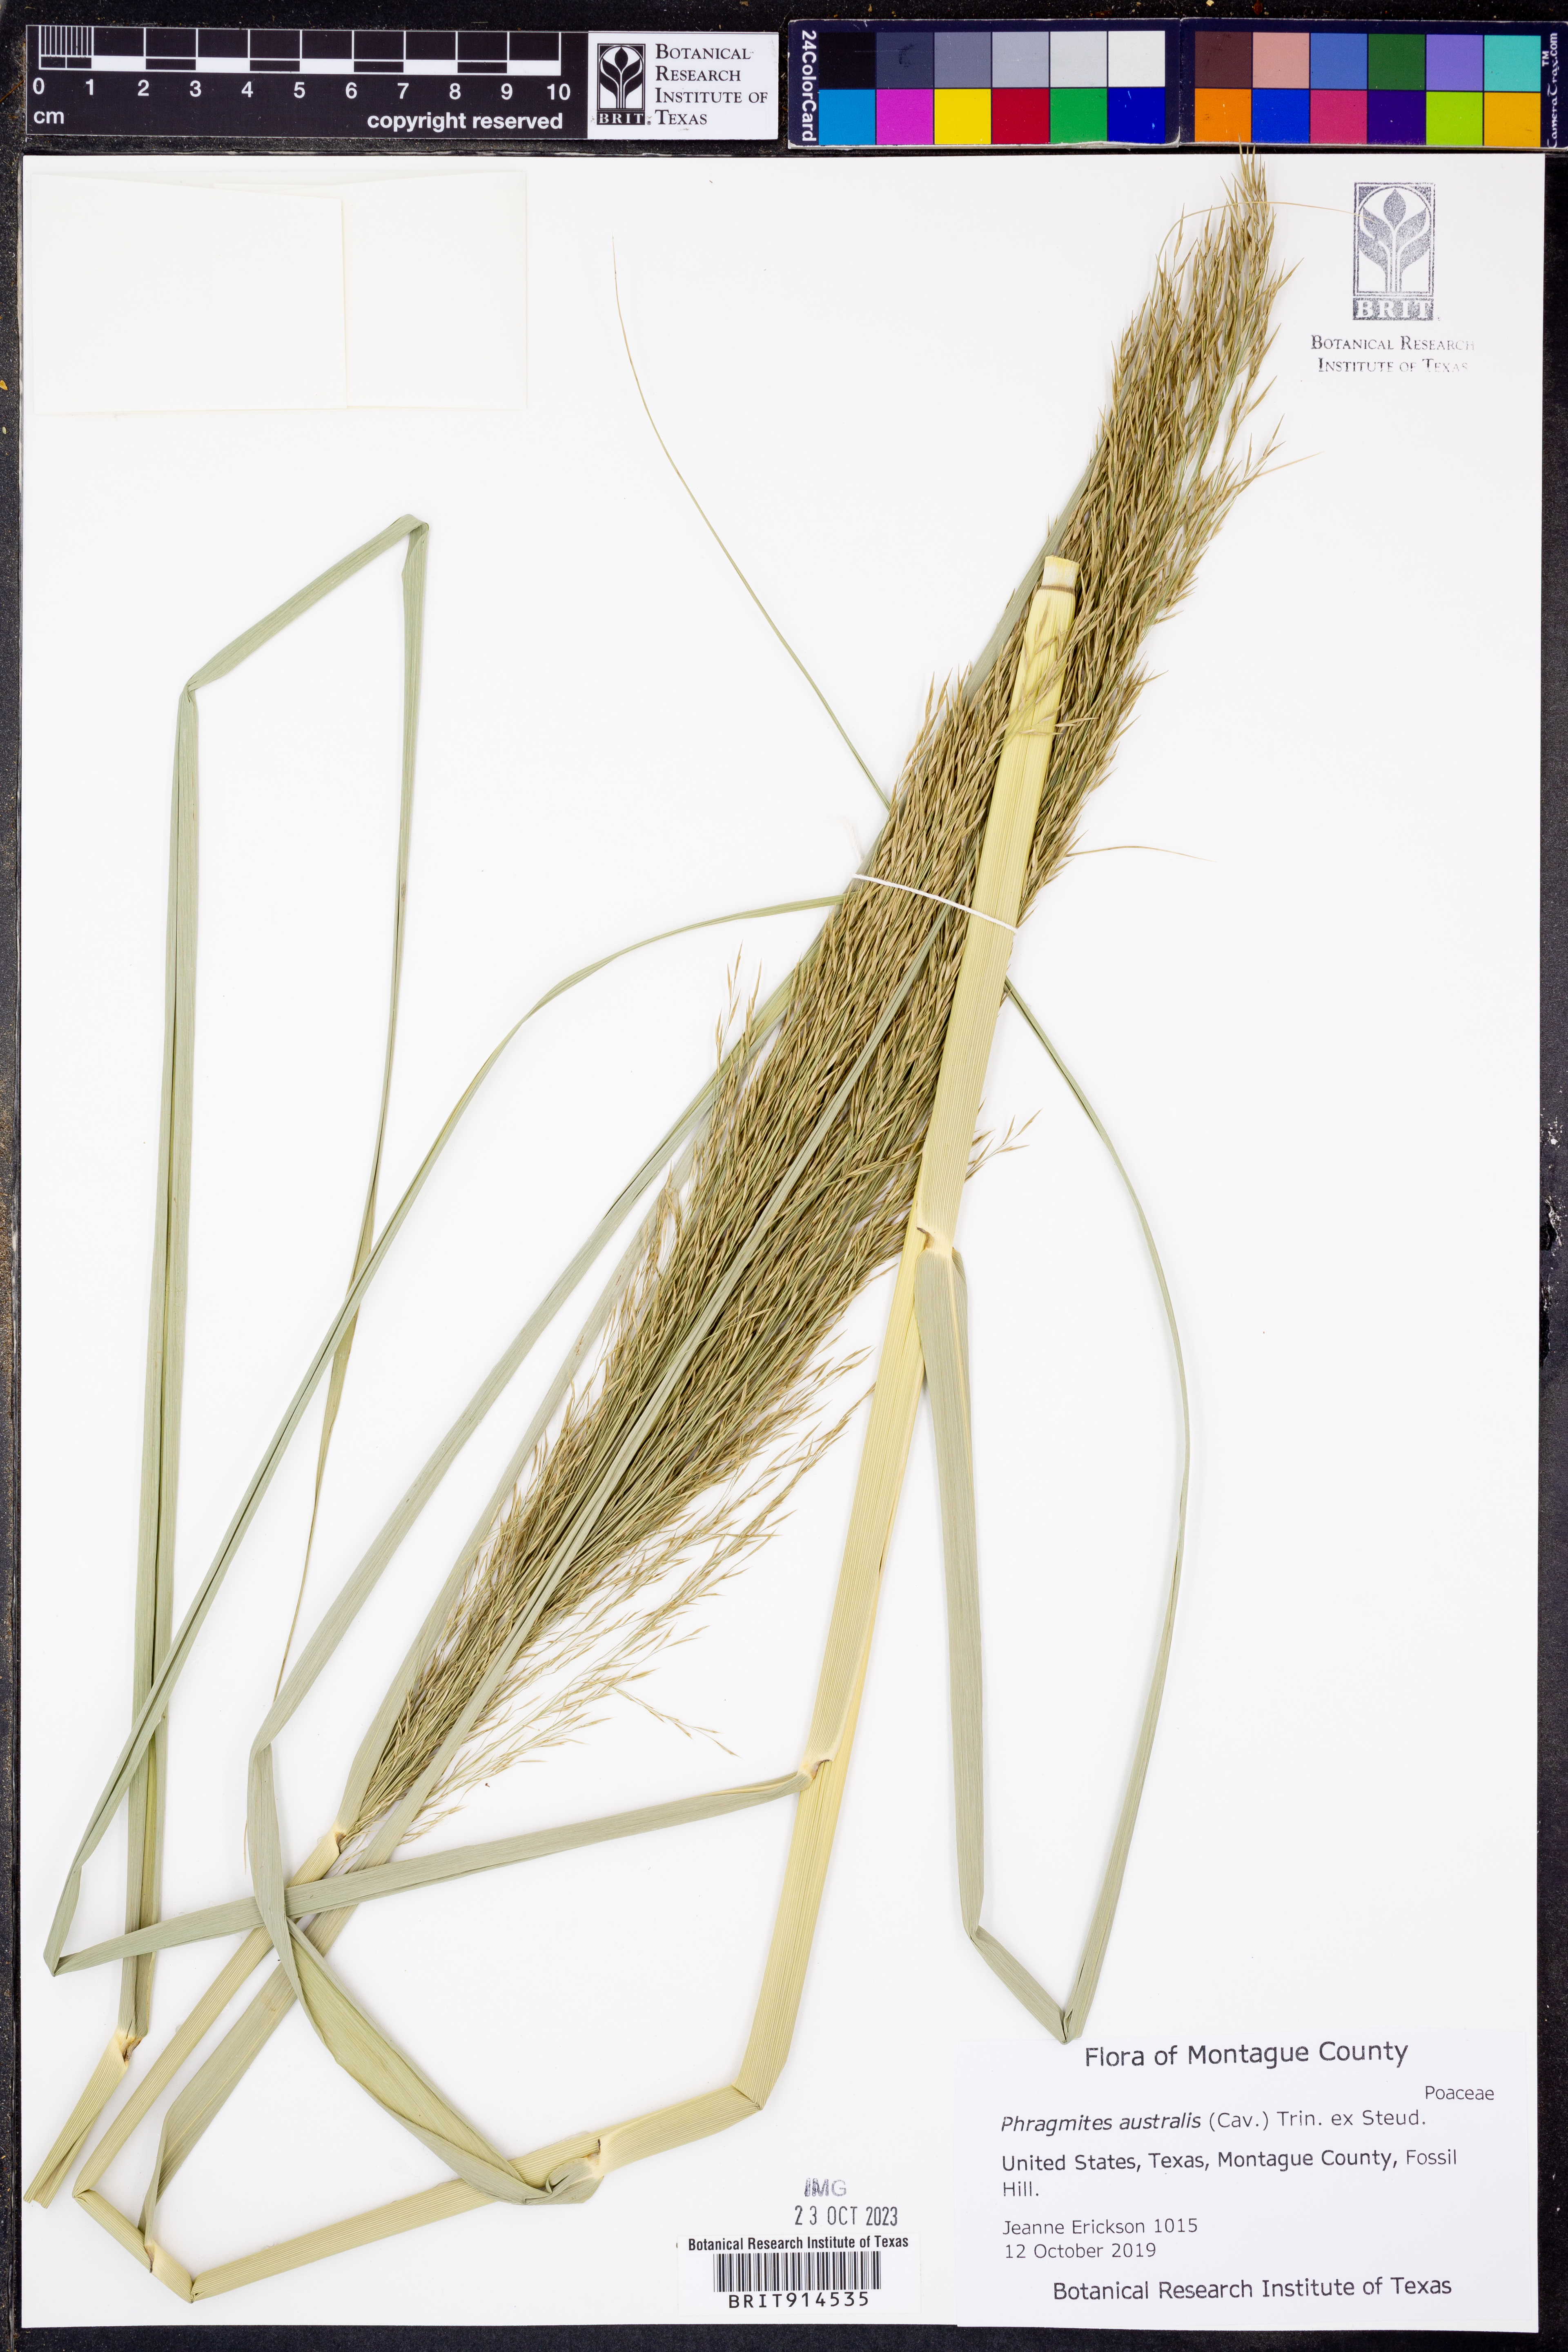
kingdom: Plantae
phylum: Tracheophyta
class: Liliopsida
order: Poales
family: Poaceae
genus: Phragmites
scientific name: Phragmites australis
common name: Common reed
